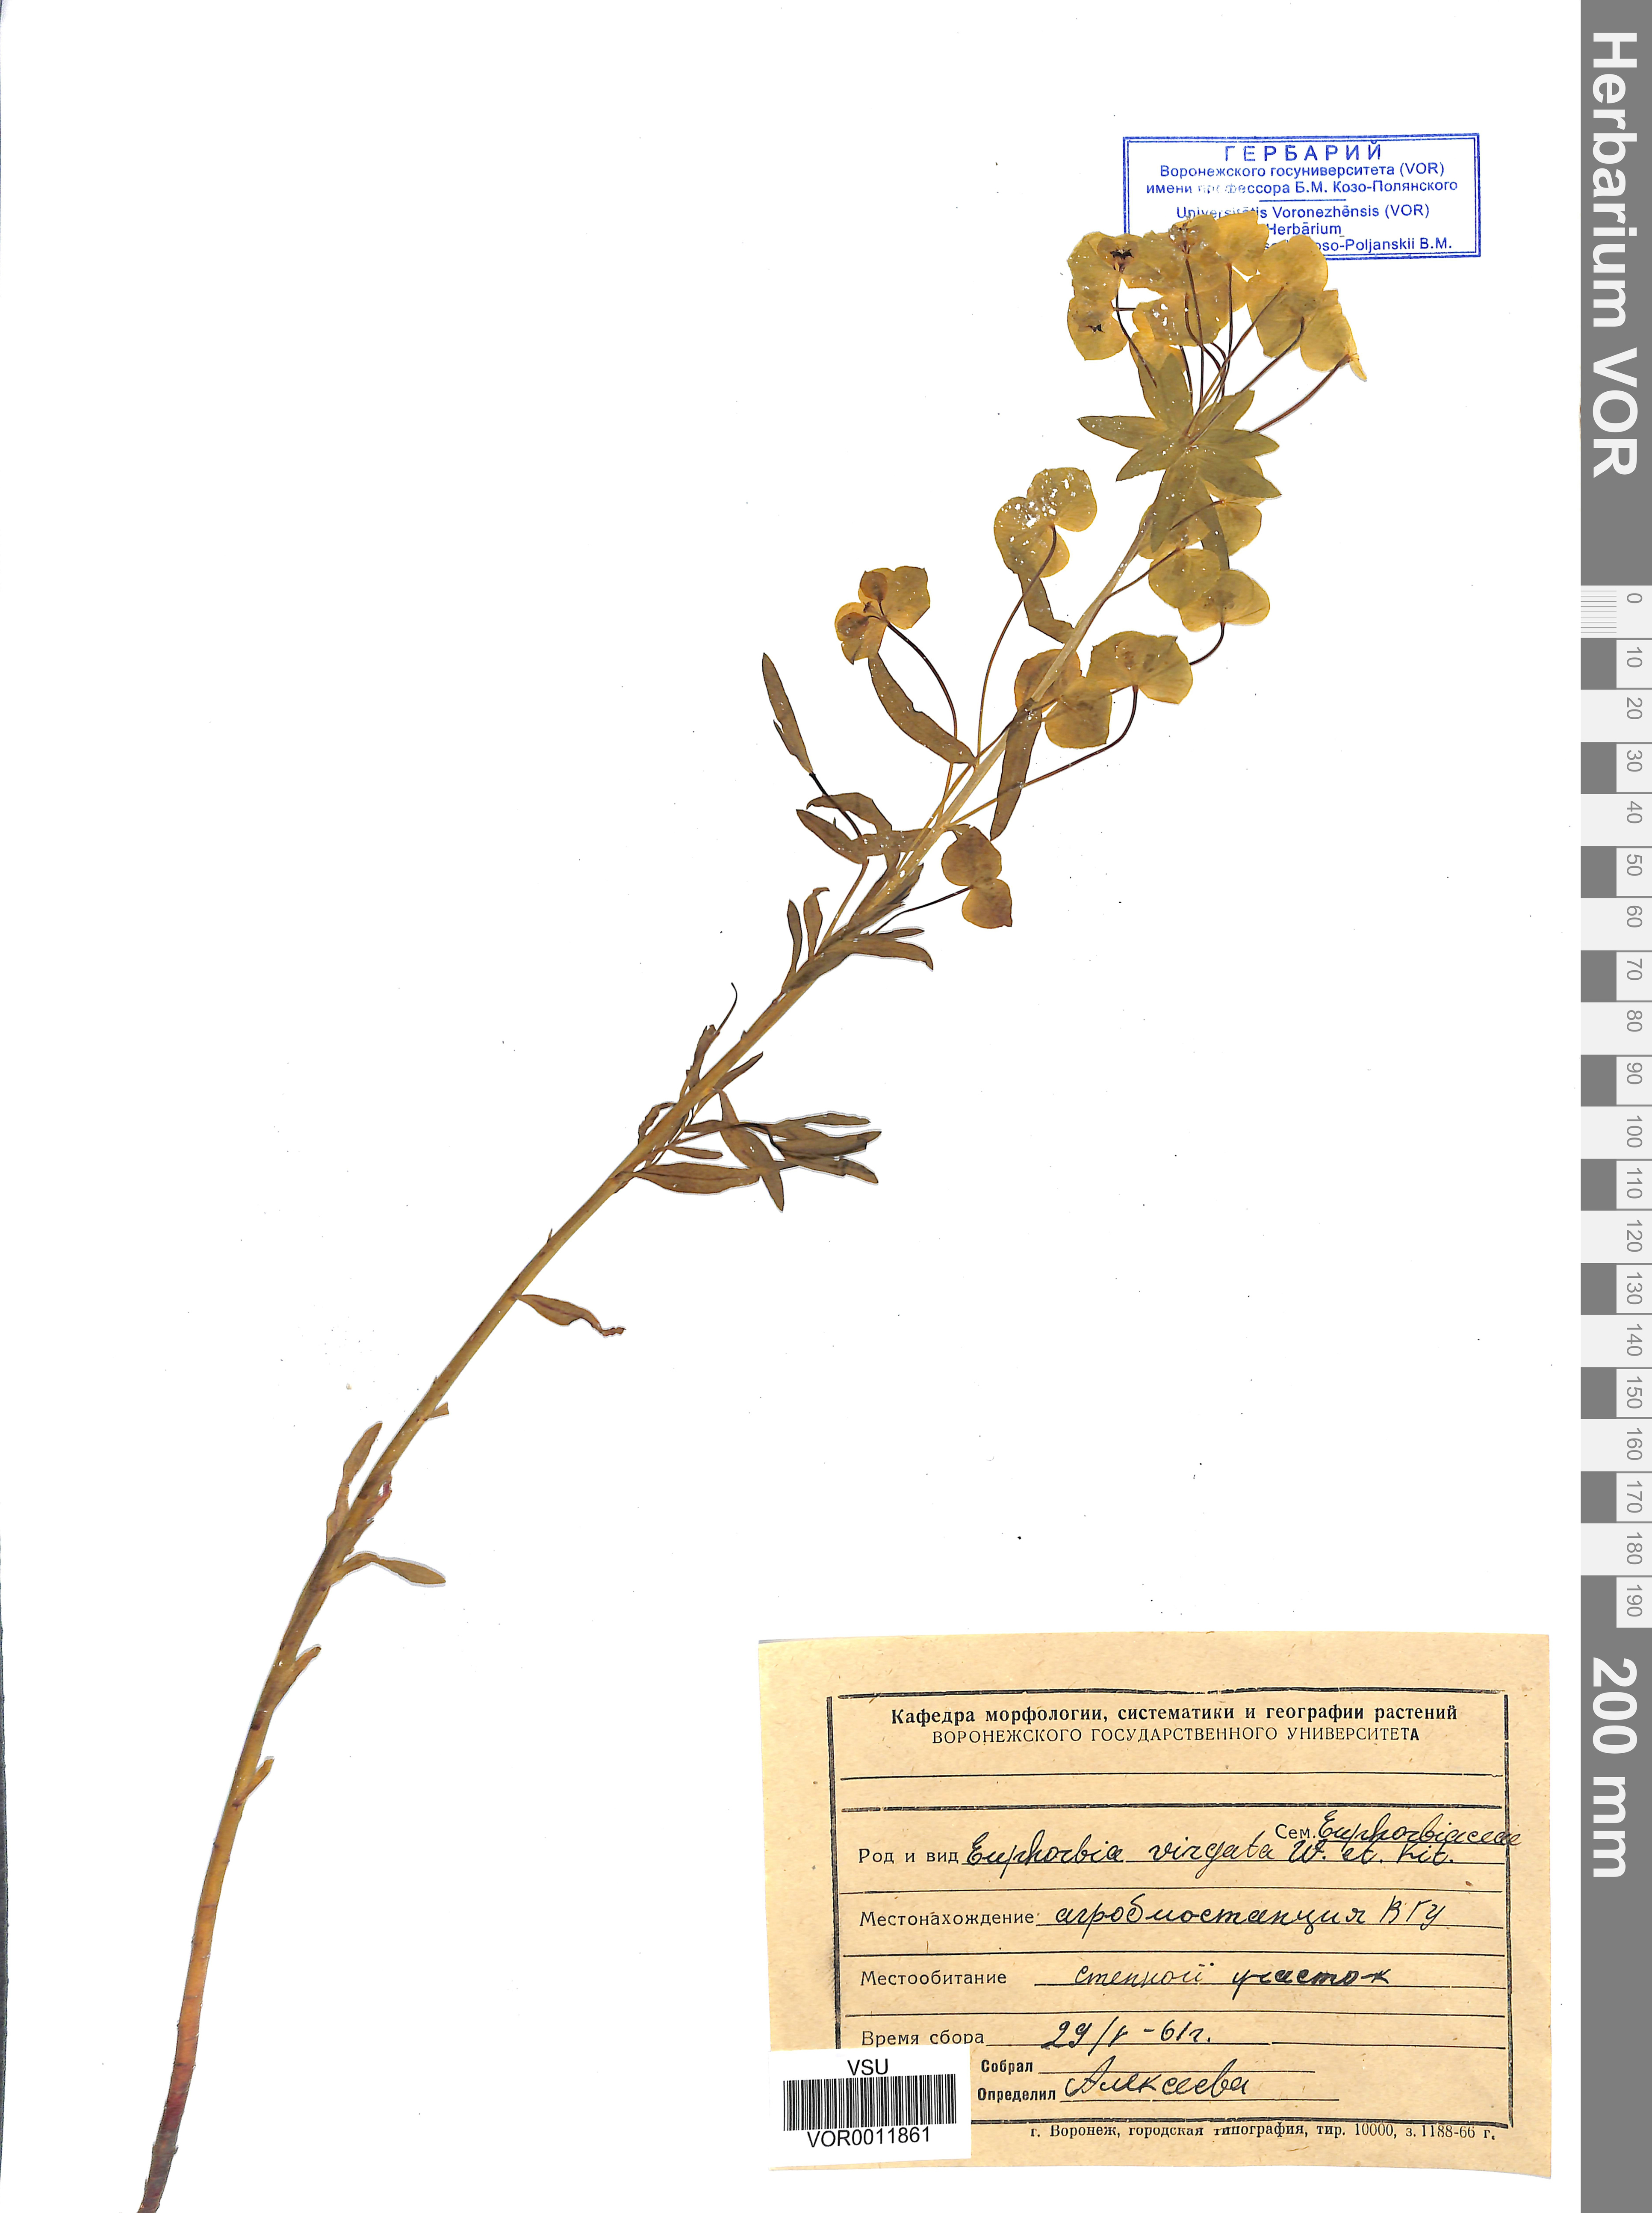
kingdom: Plantae
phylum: Tracheophyta
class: Magnoliopsida
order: Malpighiales
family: Euphorbiaceae
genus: Euphorbia
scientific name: Euphorbia virgata
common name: Leafy spurge
